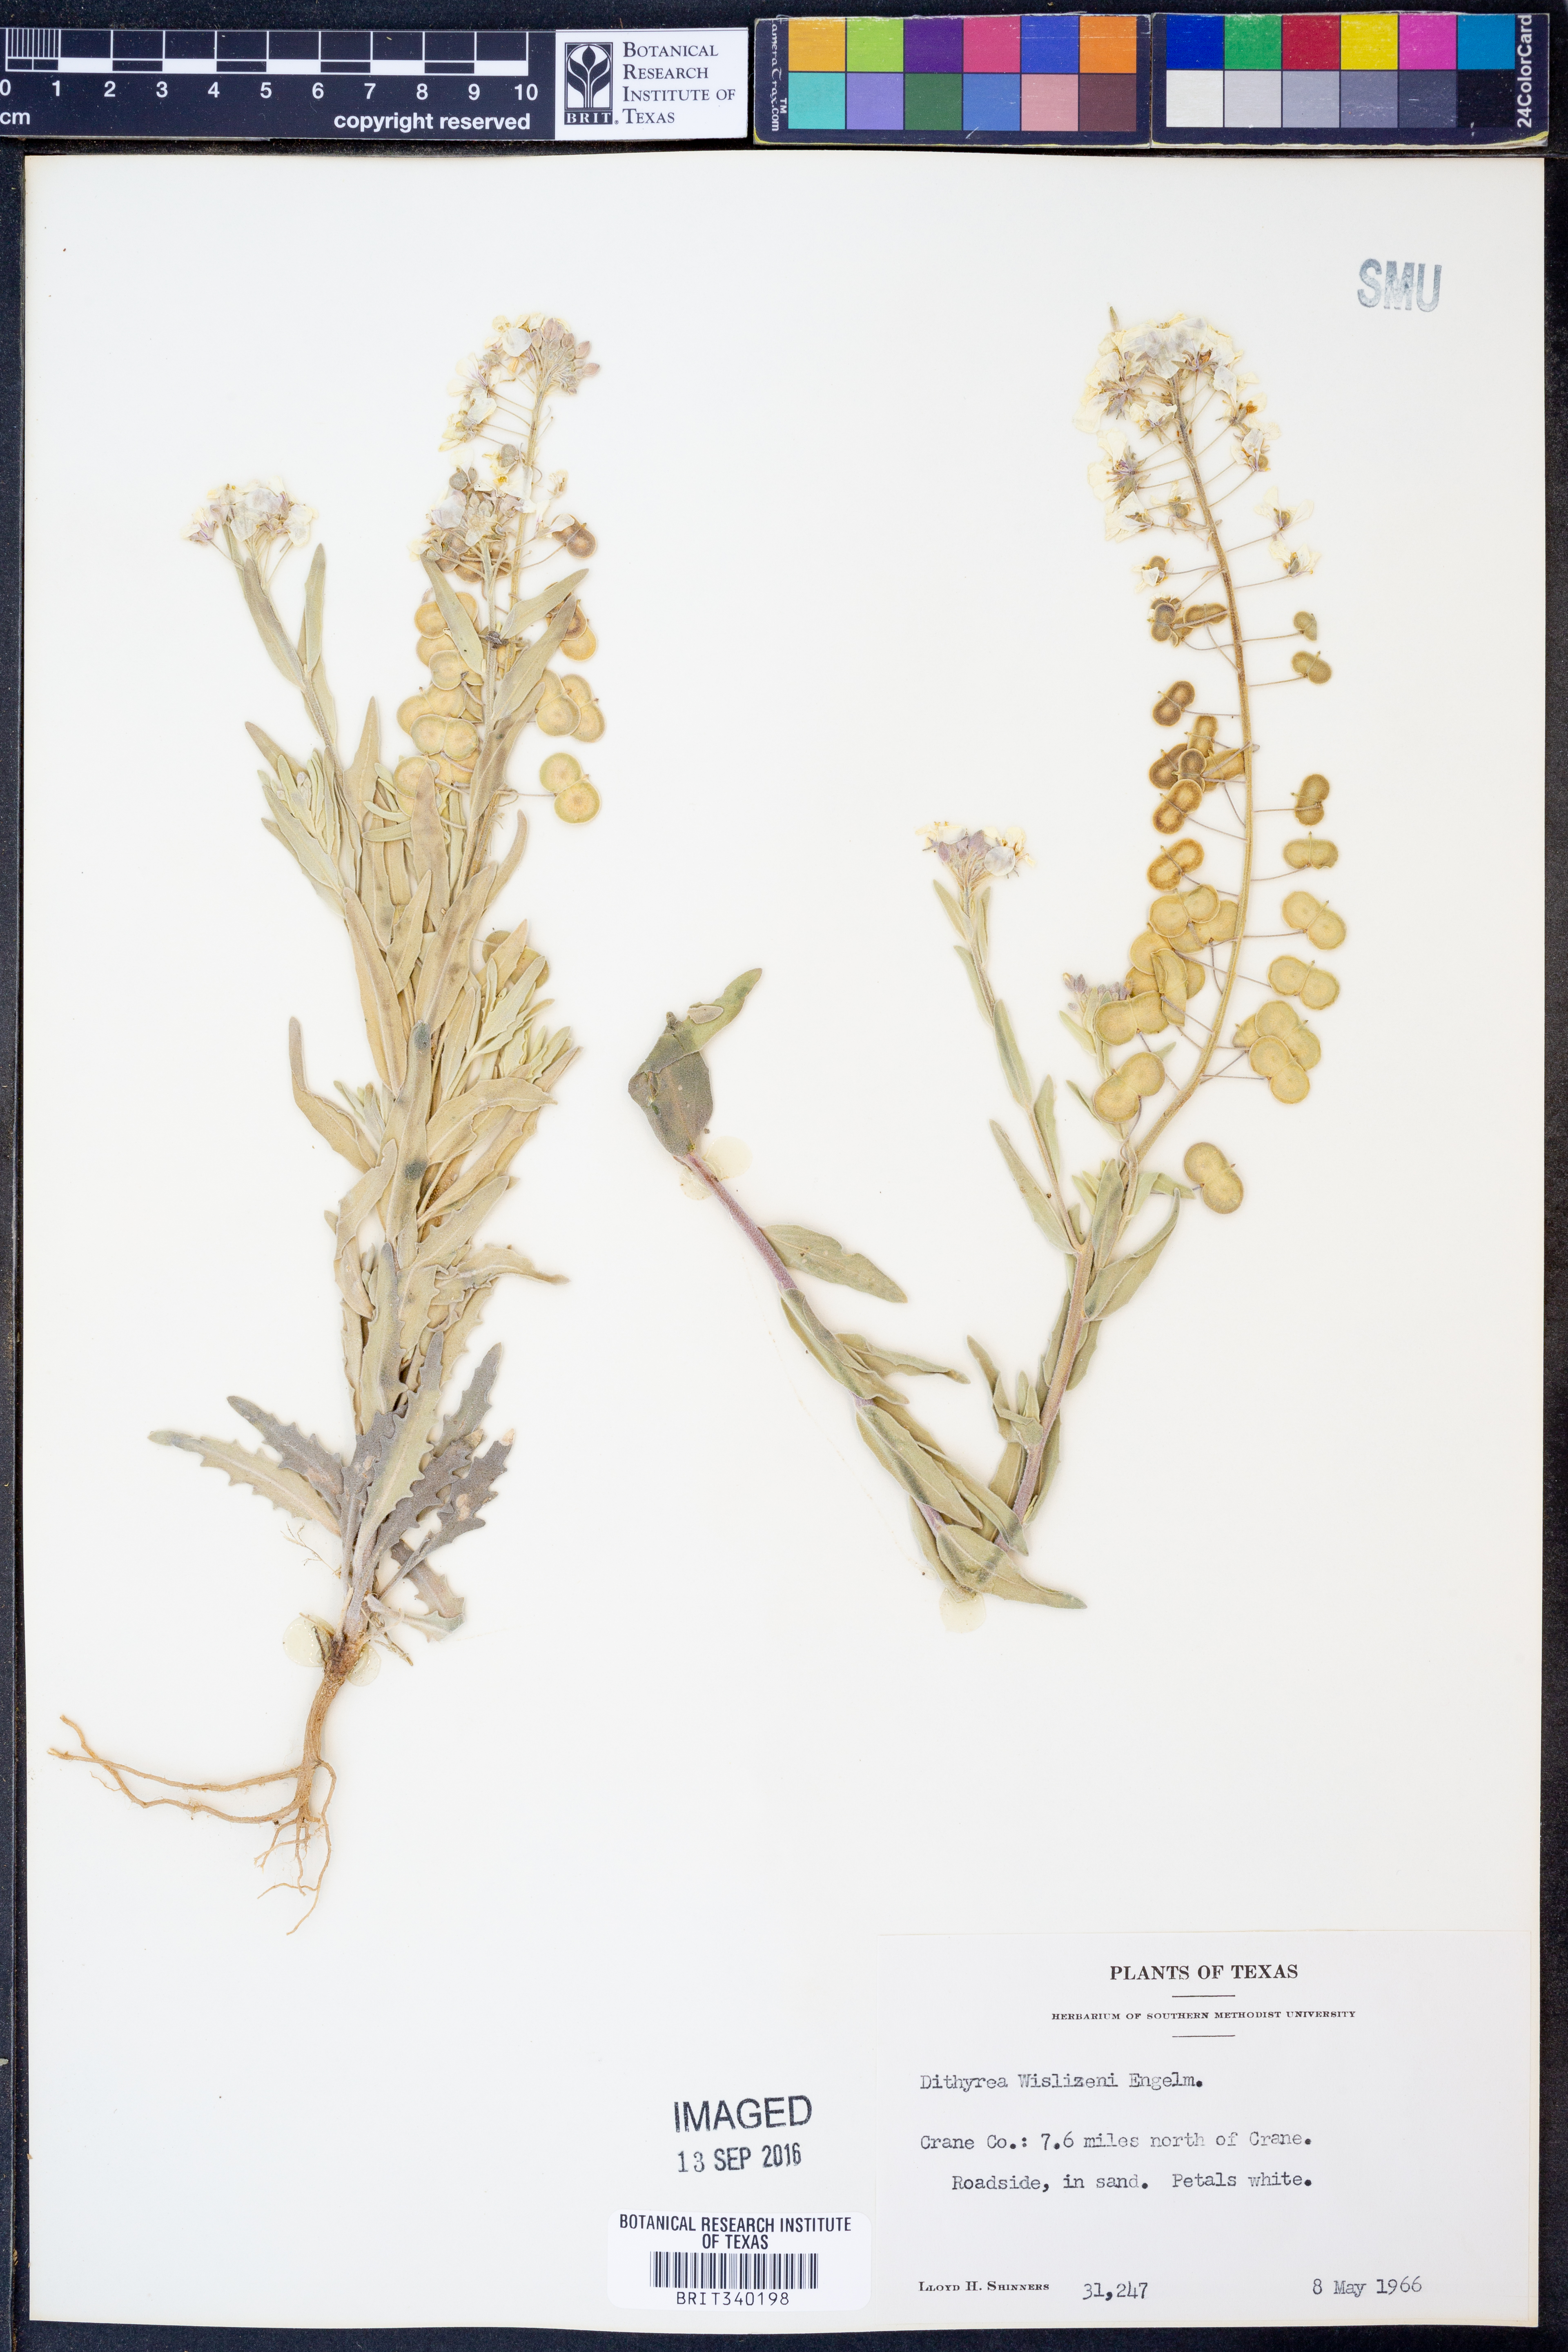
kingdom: Plantae
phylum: Tracheophyta
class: Magnoliopsida
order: Brassicales
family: Brassicaceae
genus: Dimorphocarpa
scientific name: Dimorphocarpa wislizenii
